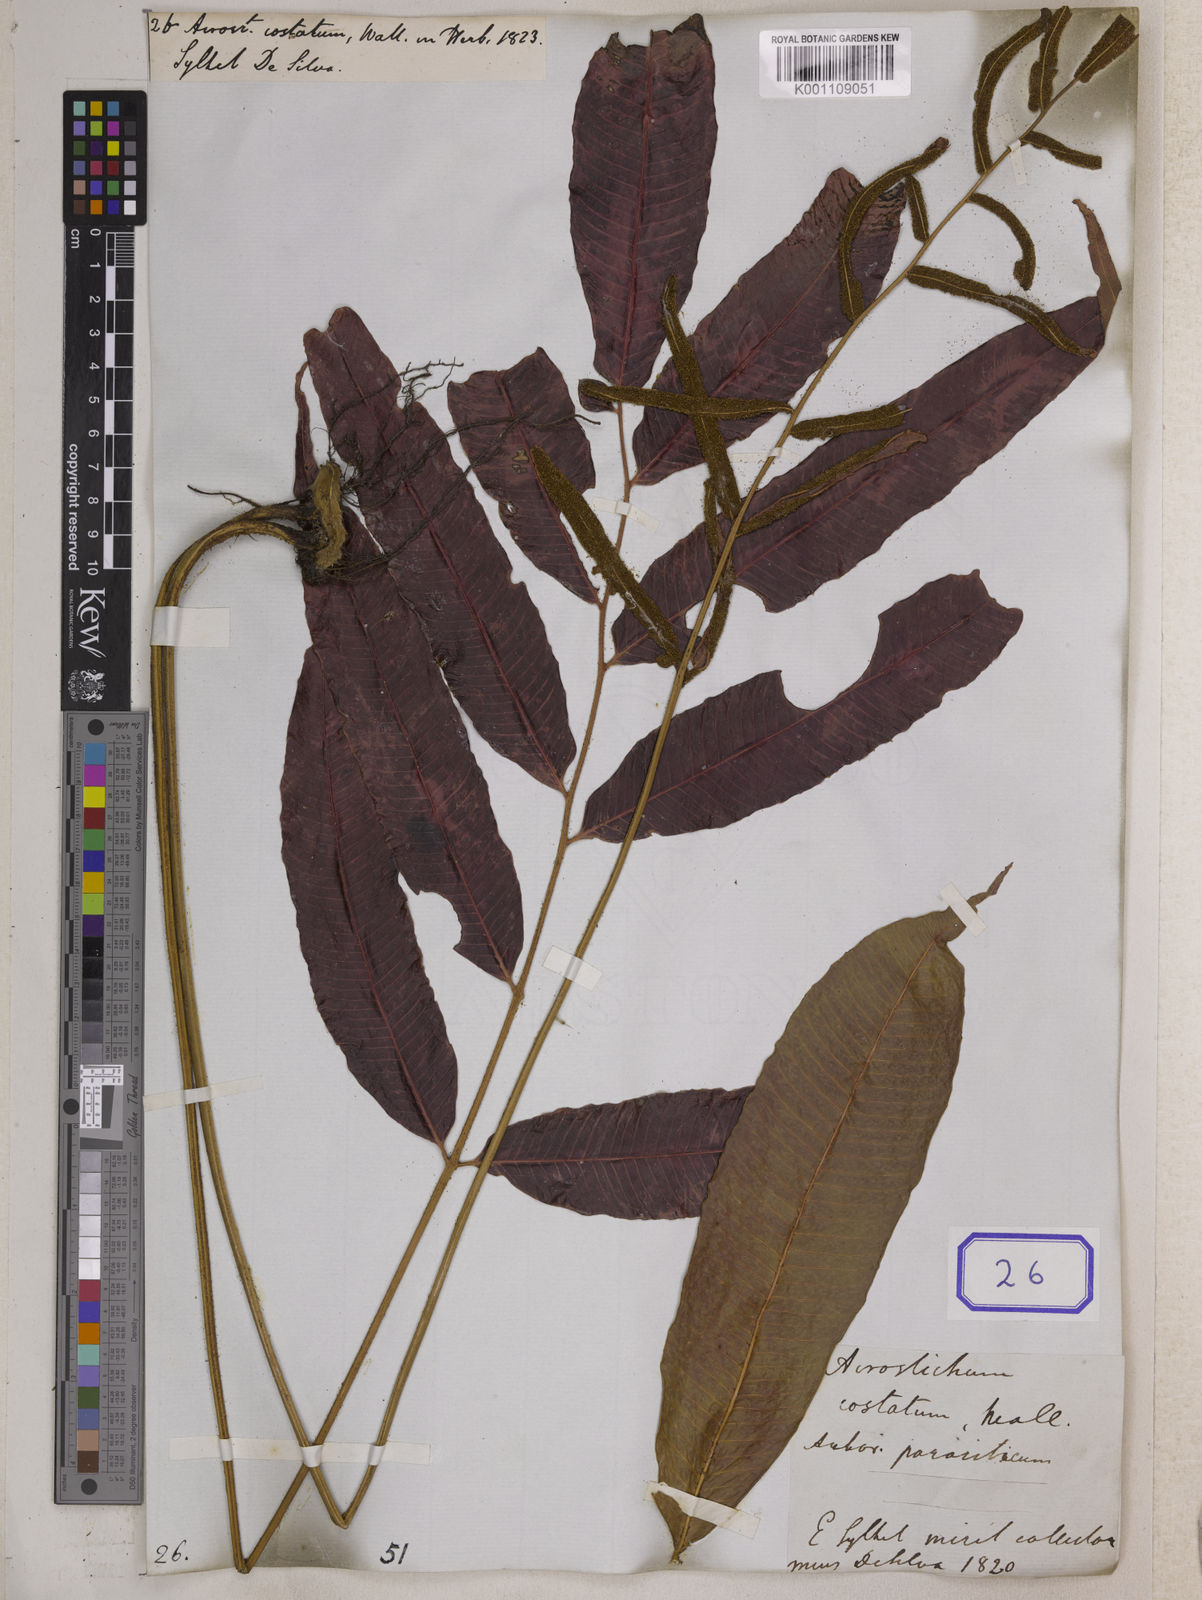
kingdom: Plantae
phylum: Tracheophyta
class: Polypodiopsida
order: Polypodiales
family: Dryopteridaceae
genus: Bolbitis
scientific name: Bolbitis costata
